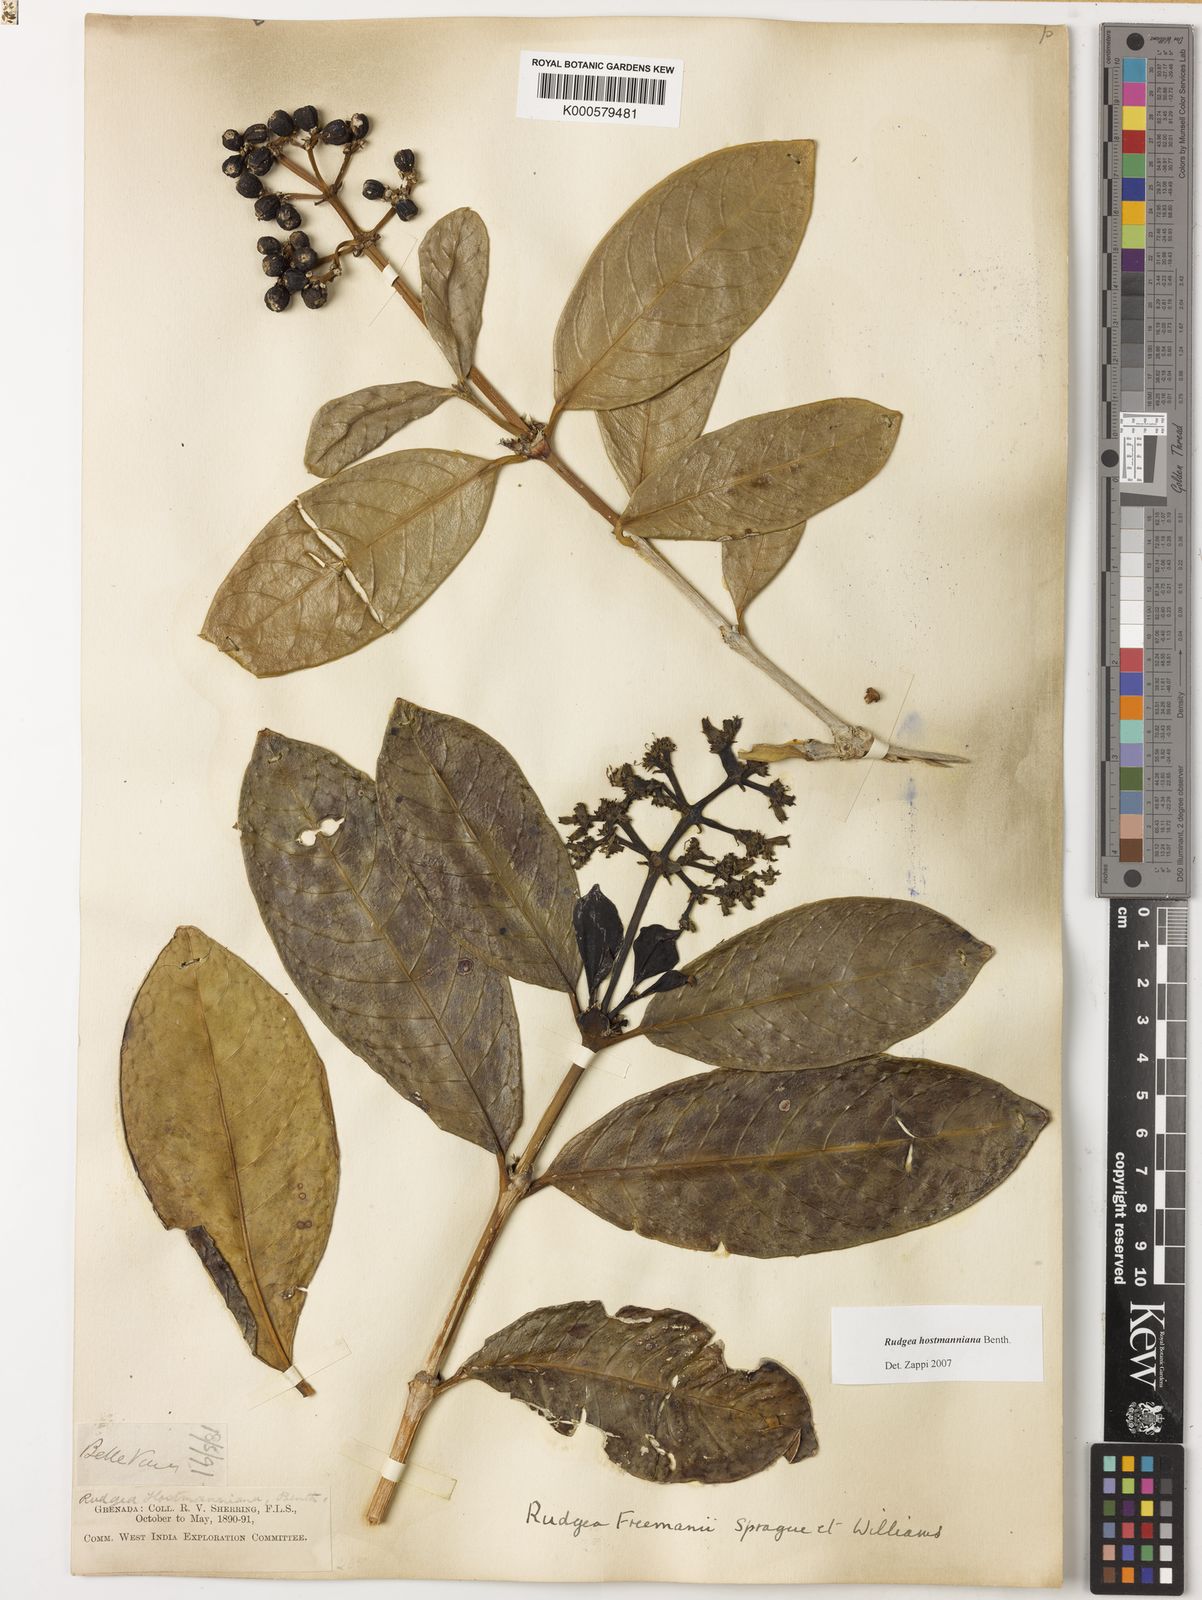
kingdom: Plantae
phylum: Tracheophyta
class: Magnoliopsida
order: Gentianales
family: Rubiaceae
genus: Rudgea
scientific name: Rudgea hostmanniana
